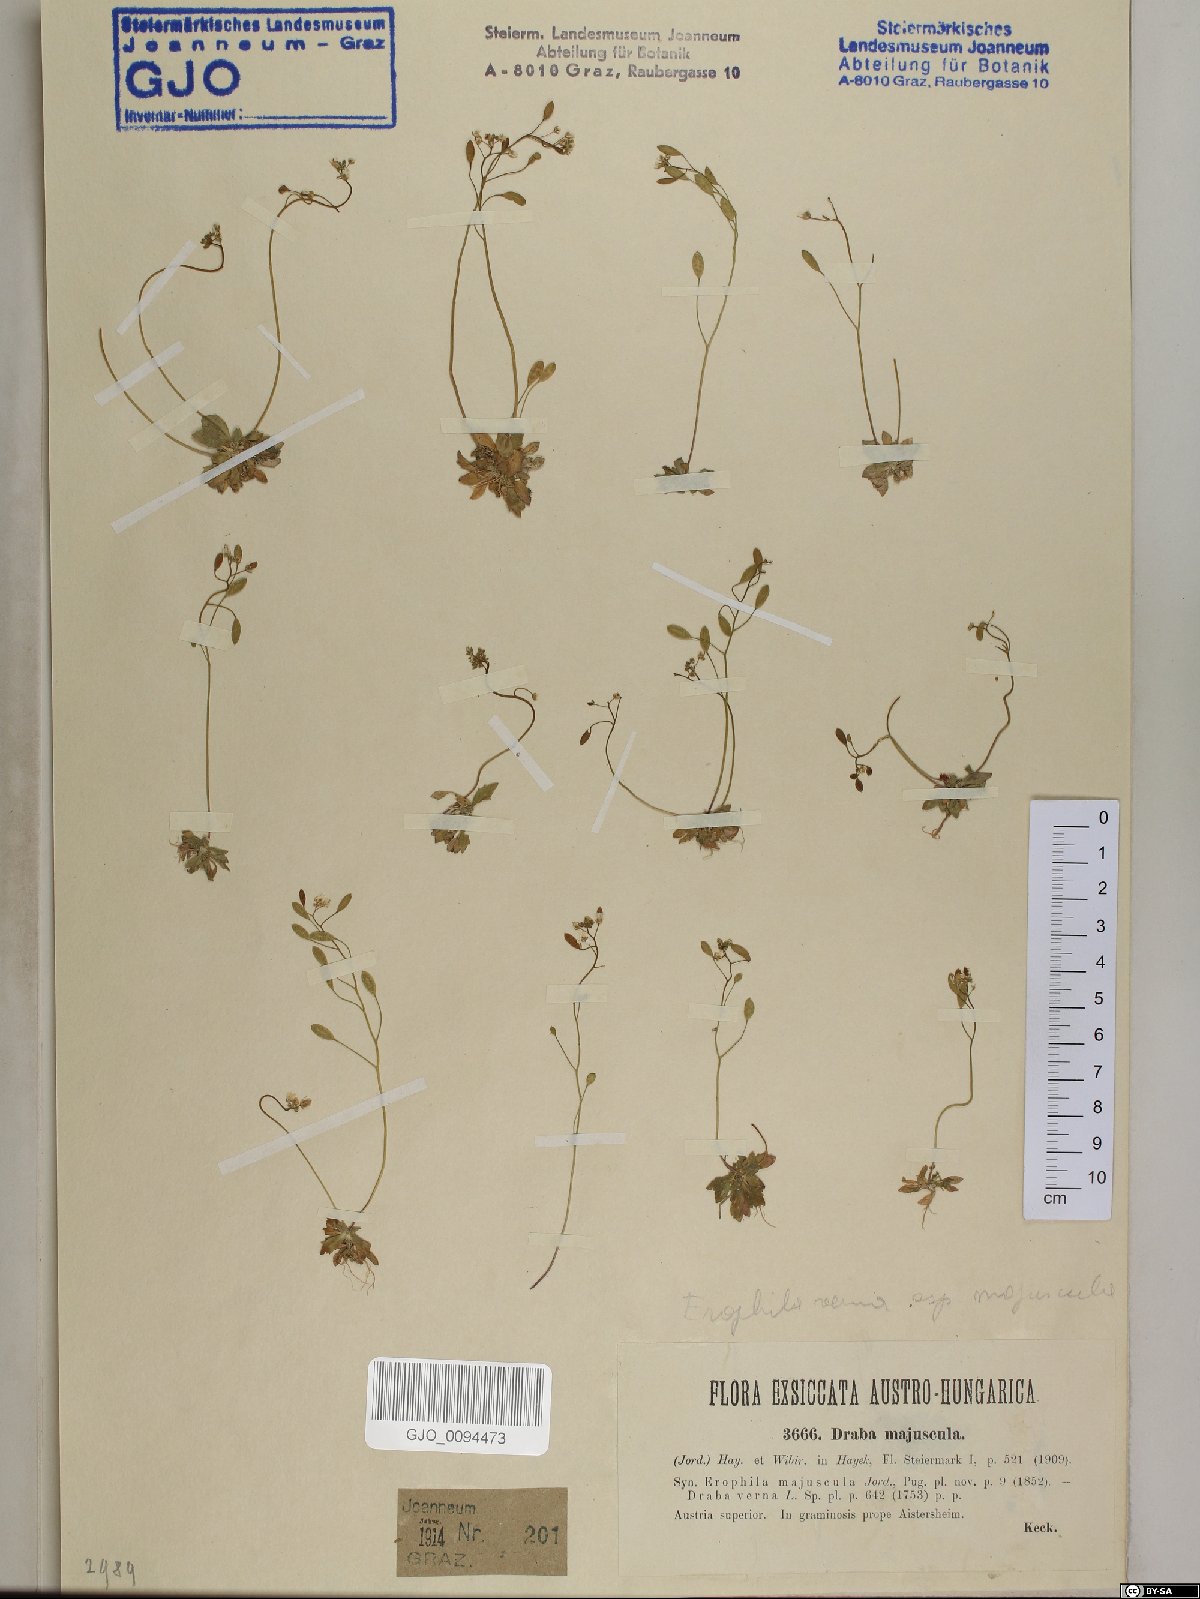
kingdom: Plantae
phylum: Tracheophyta
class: Magnoliopsida
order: Brassicales
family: Brassicaceae
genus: Draba
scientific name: Draba verna
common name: Spring draba
